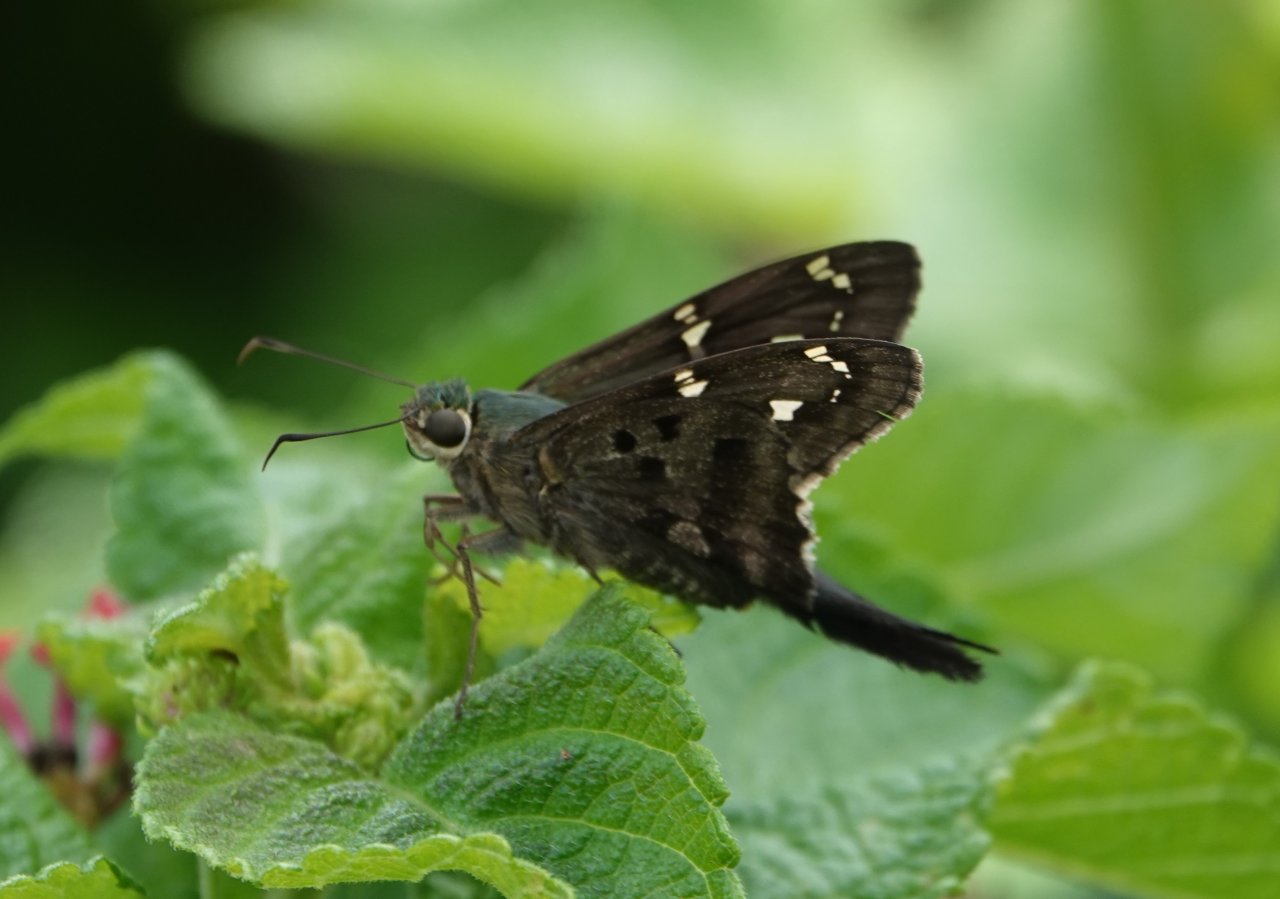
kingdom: Animalia
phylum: Arthropoda
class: Insecta
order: Lepidoptera
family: Hesperiidae
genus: Urbanus
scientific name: Urbanus proteus
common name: Long-tailed Skipper
